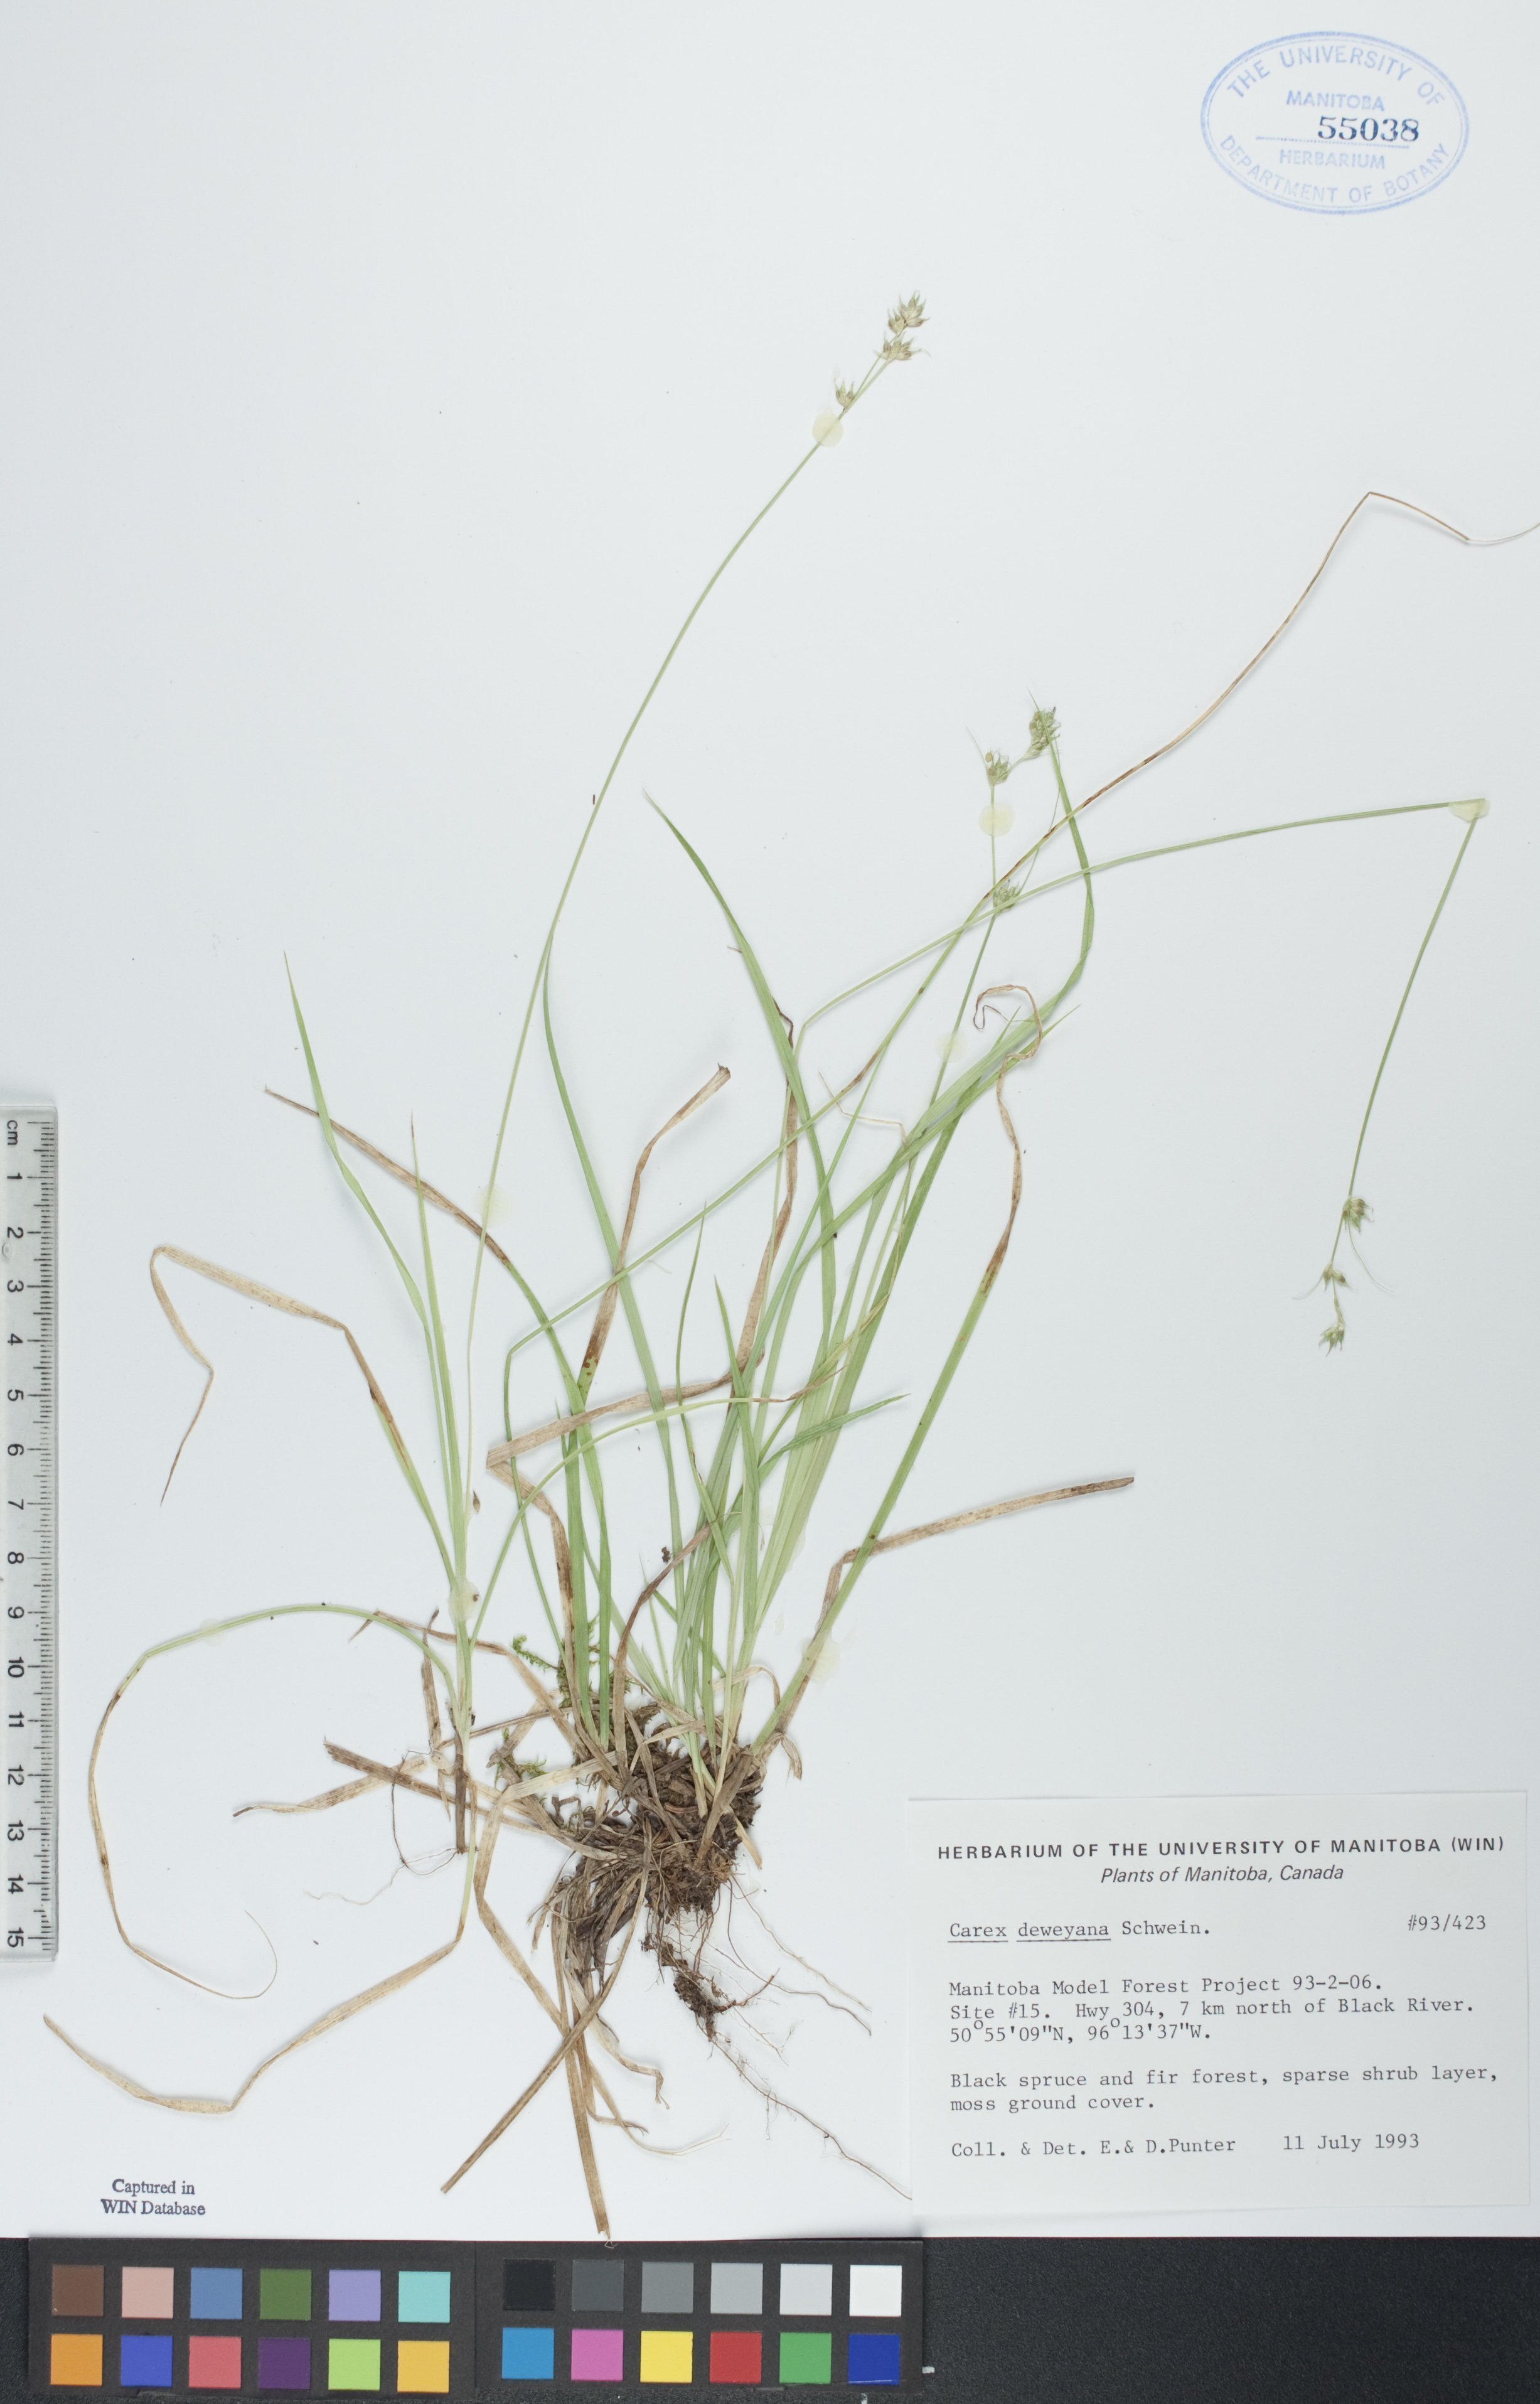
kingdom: Plantae
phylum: Tracheophyta
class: Liliopsida
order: Poales
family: Cyperaceae
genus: Carex
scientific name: Carex deweyana
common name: Dewey's sedge
